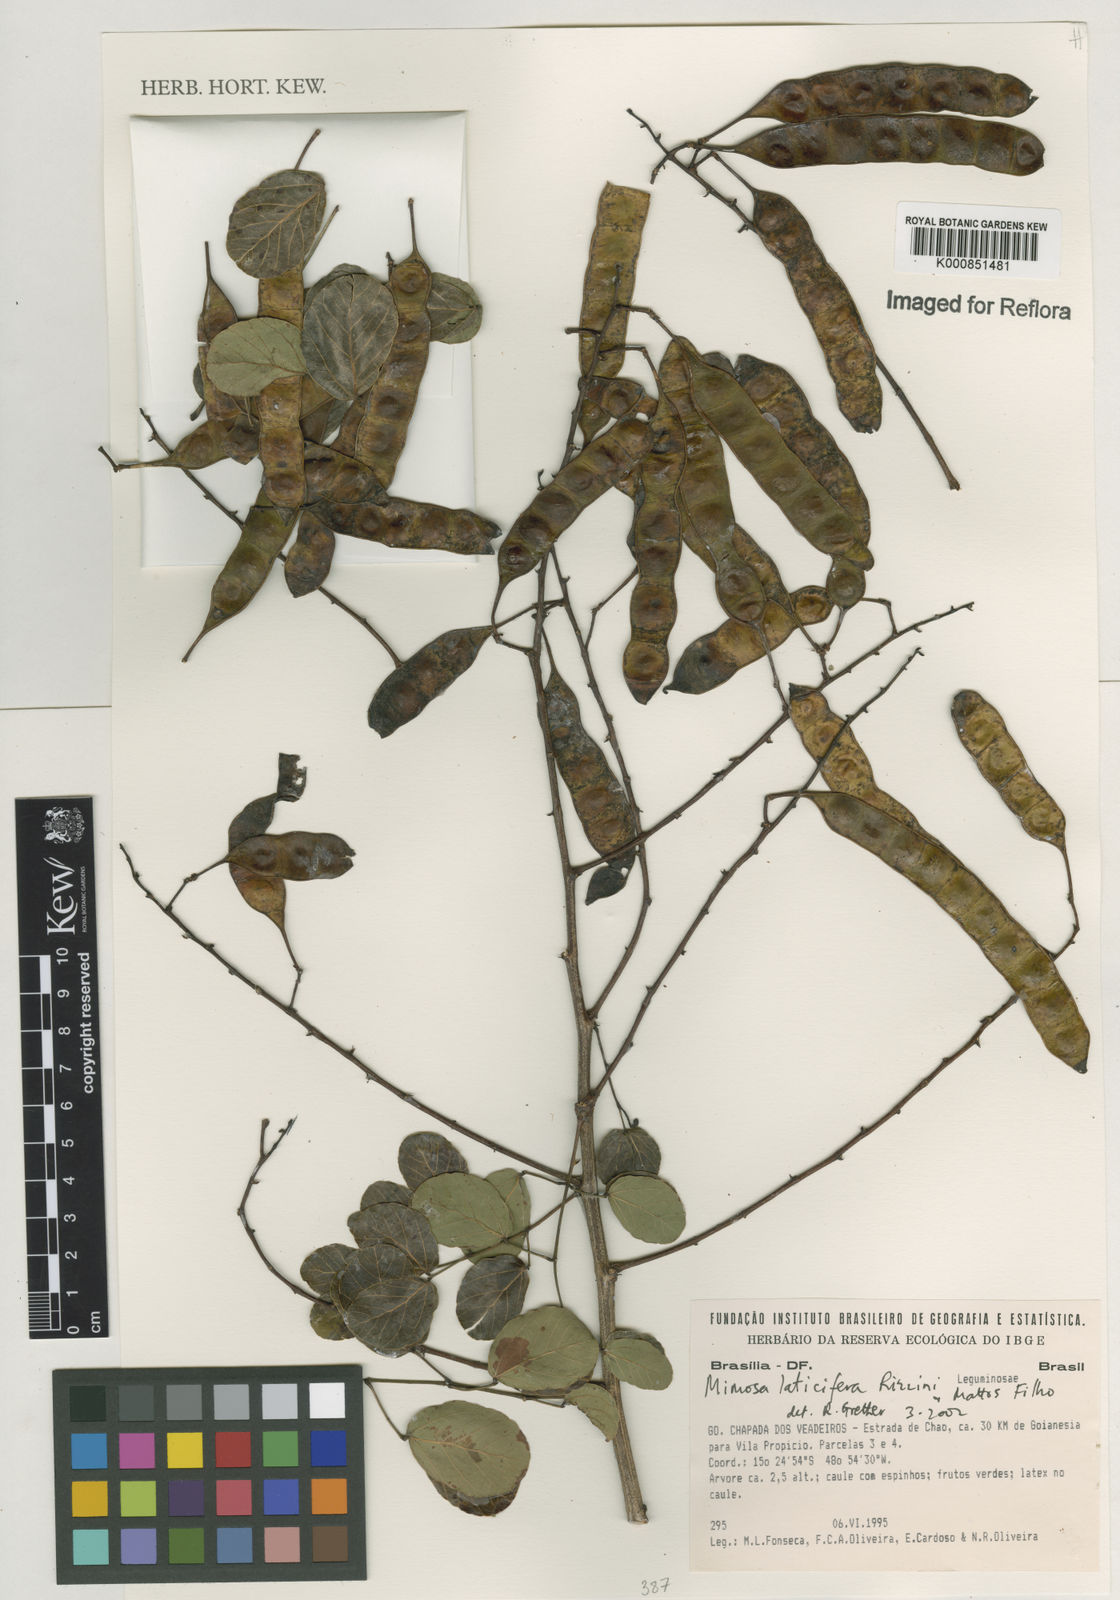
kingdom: Plantae
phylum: Tracheophyta
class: Magnoliopsida
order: Fabales
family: Fabaceae
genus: Mimosa
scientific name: Mimosa laticifera
